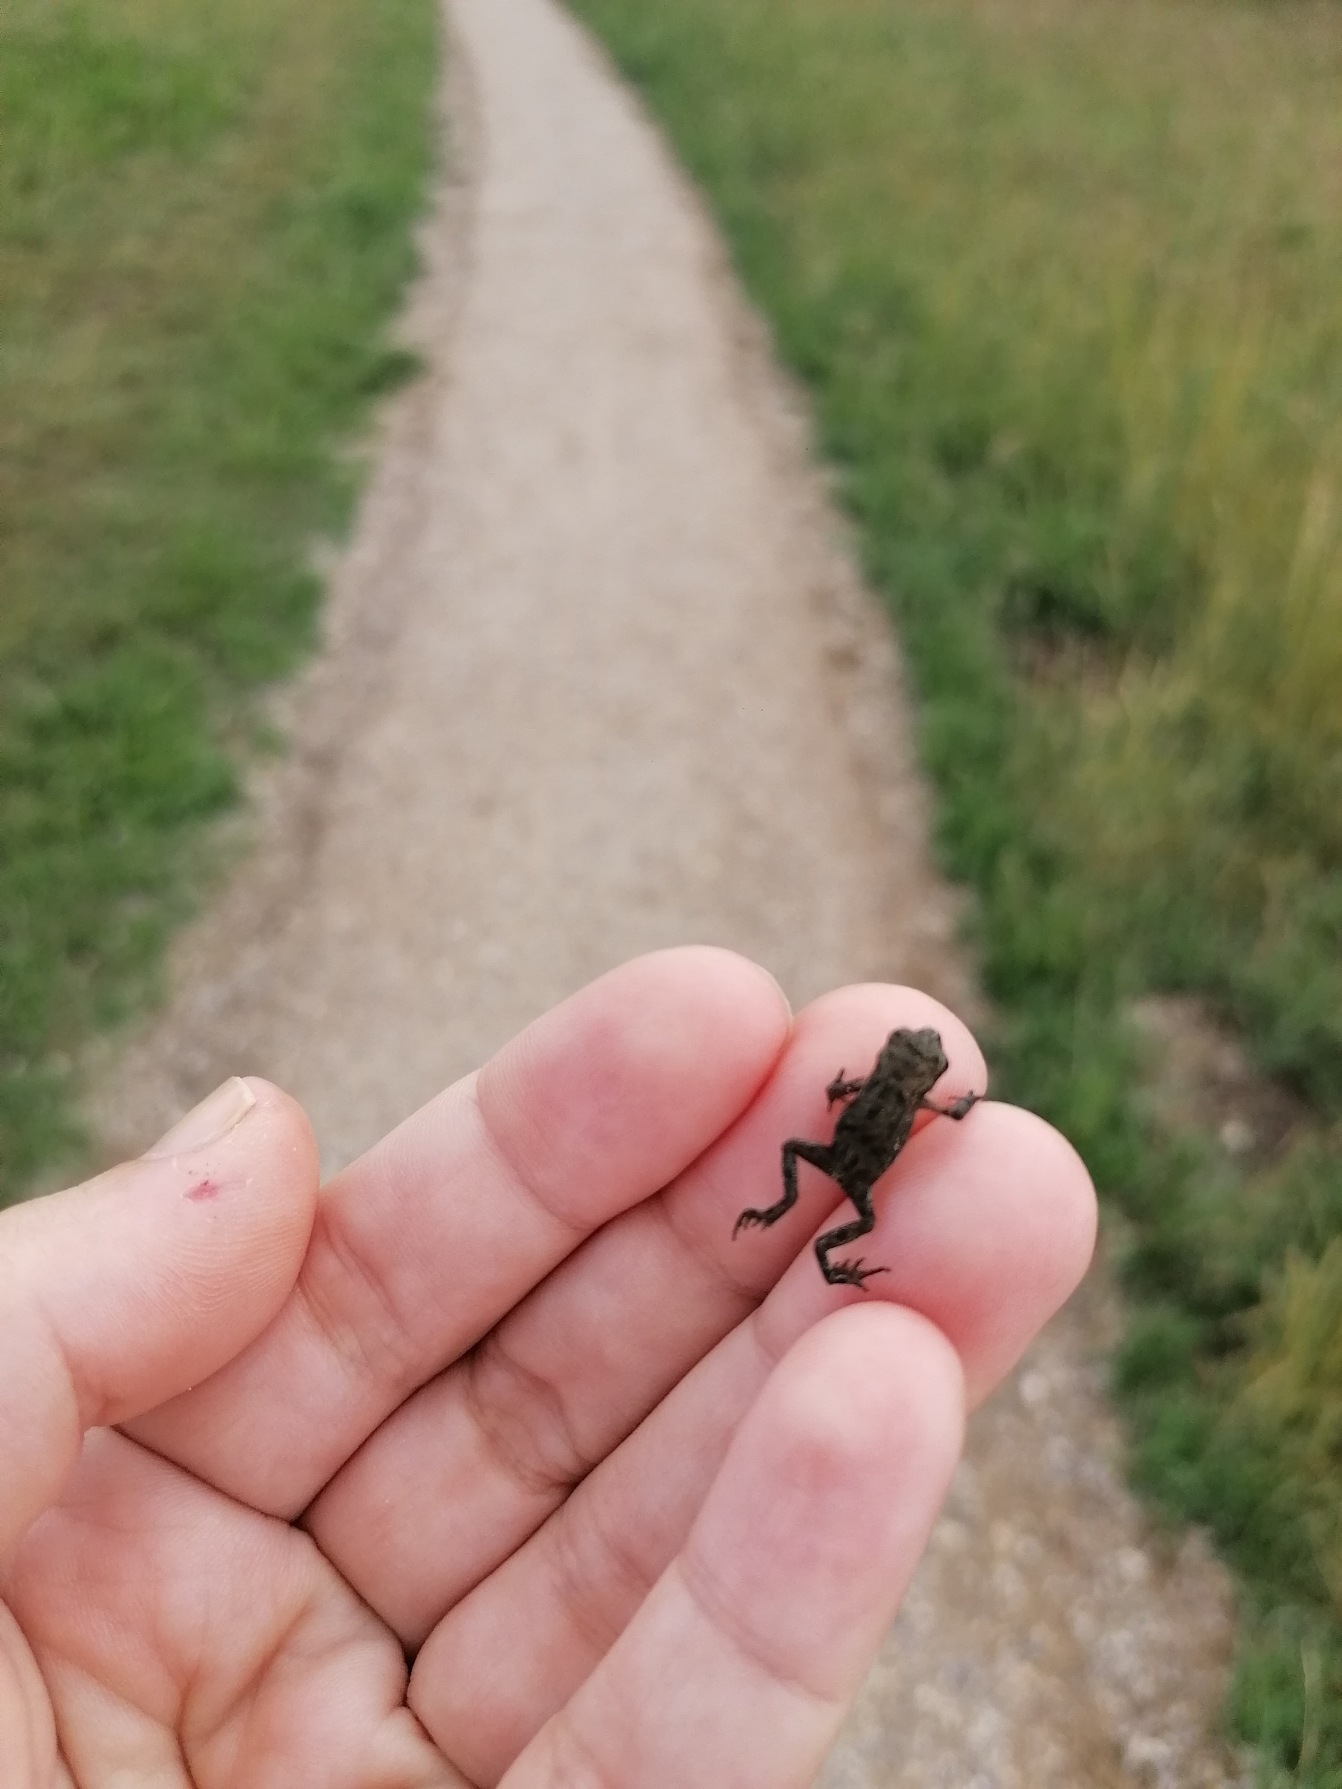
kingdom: Animalia
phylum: Chordata
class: Amphibia
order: Anura
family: Bufonidae
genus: Bufo
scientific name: Bufo bufo
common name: Skrubtudse
